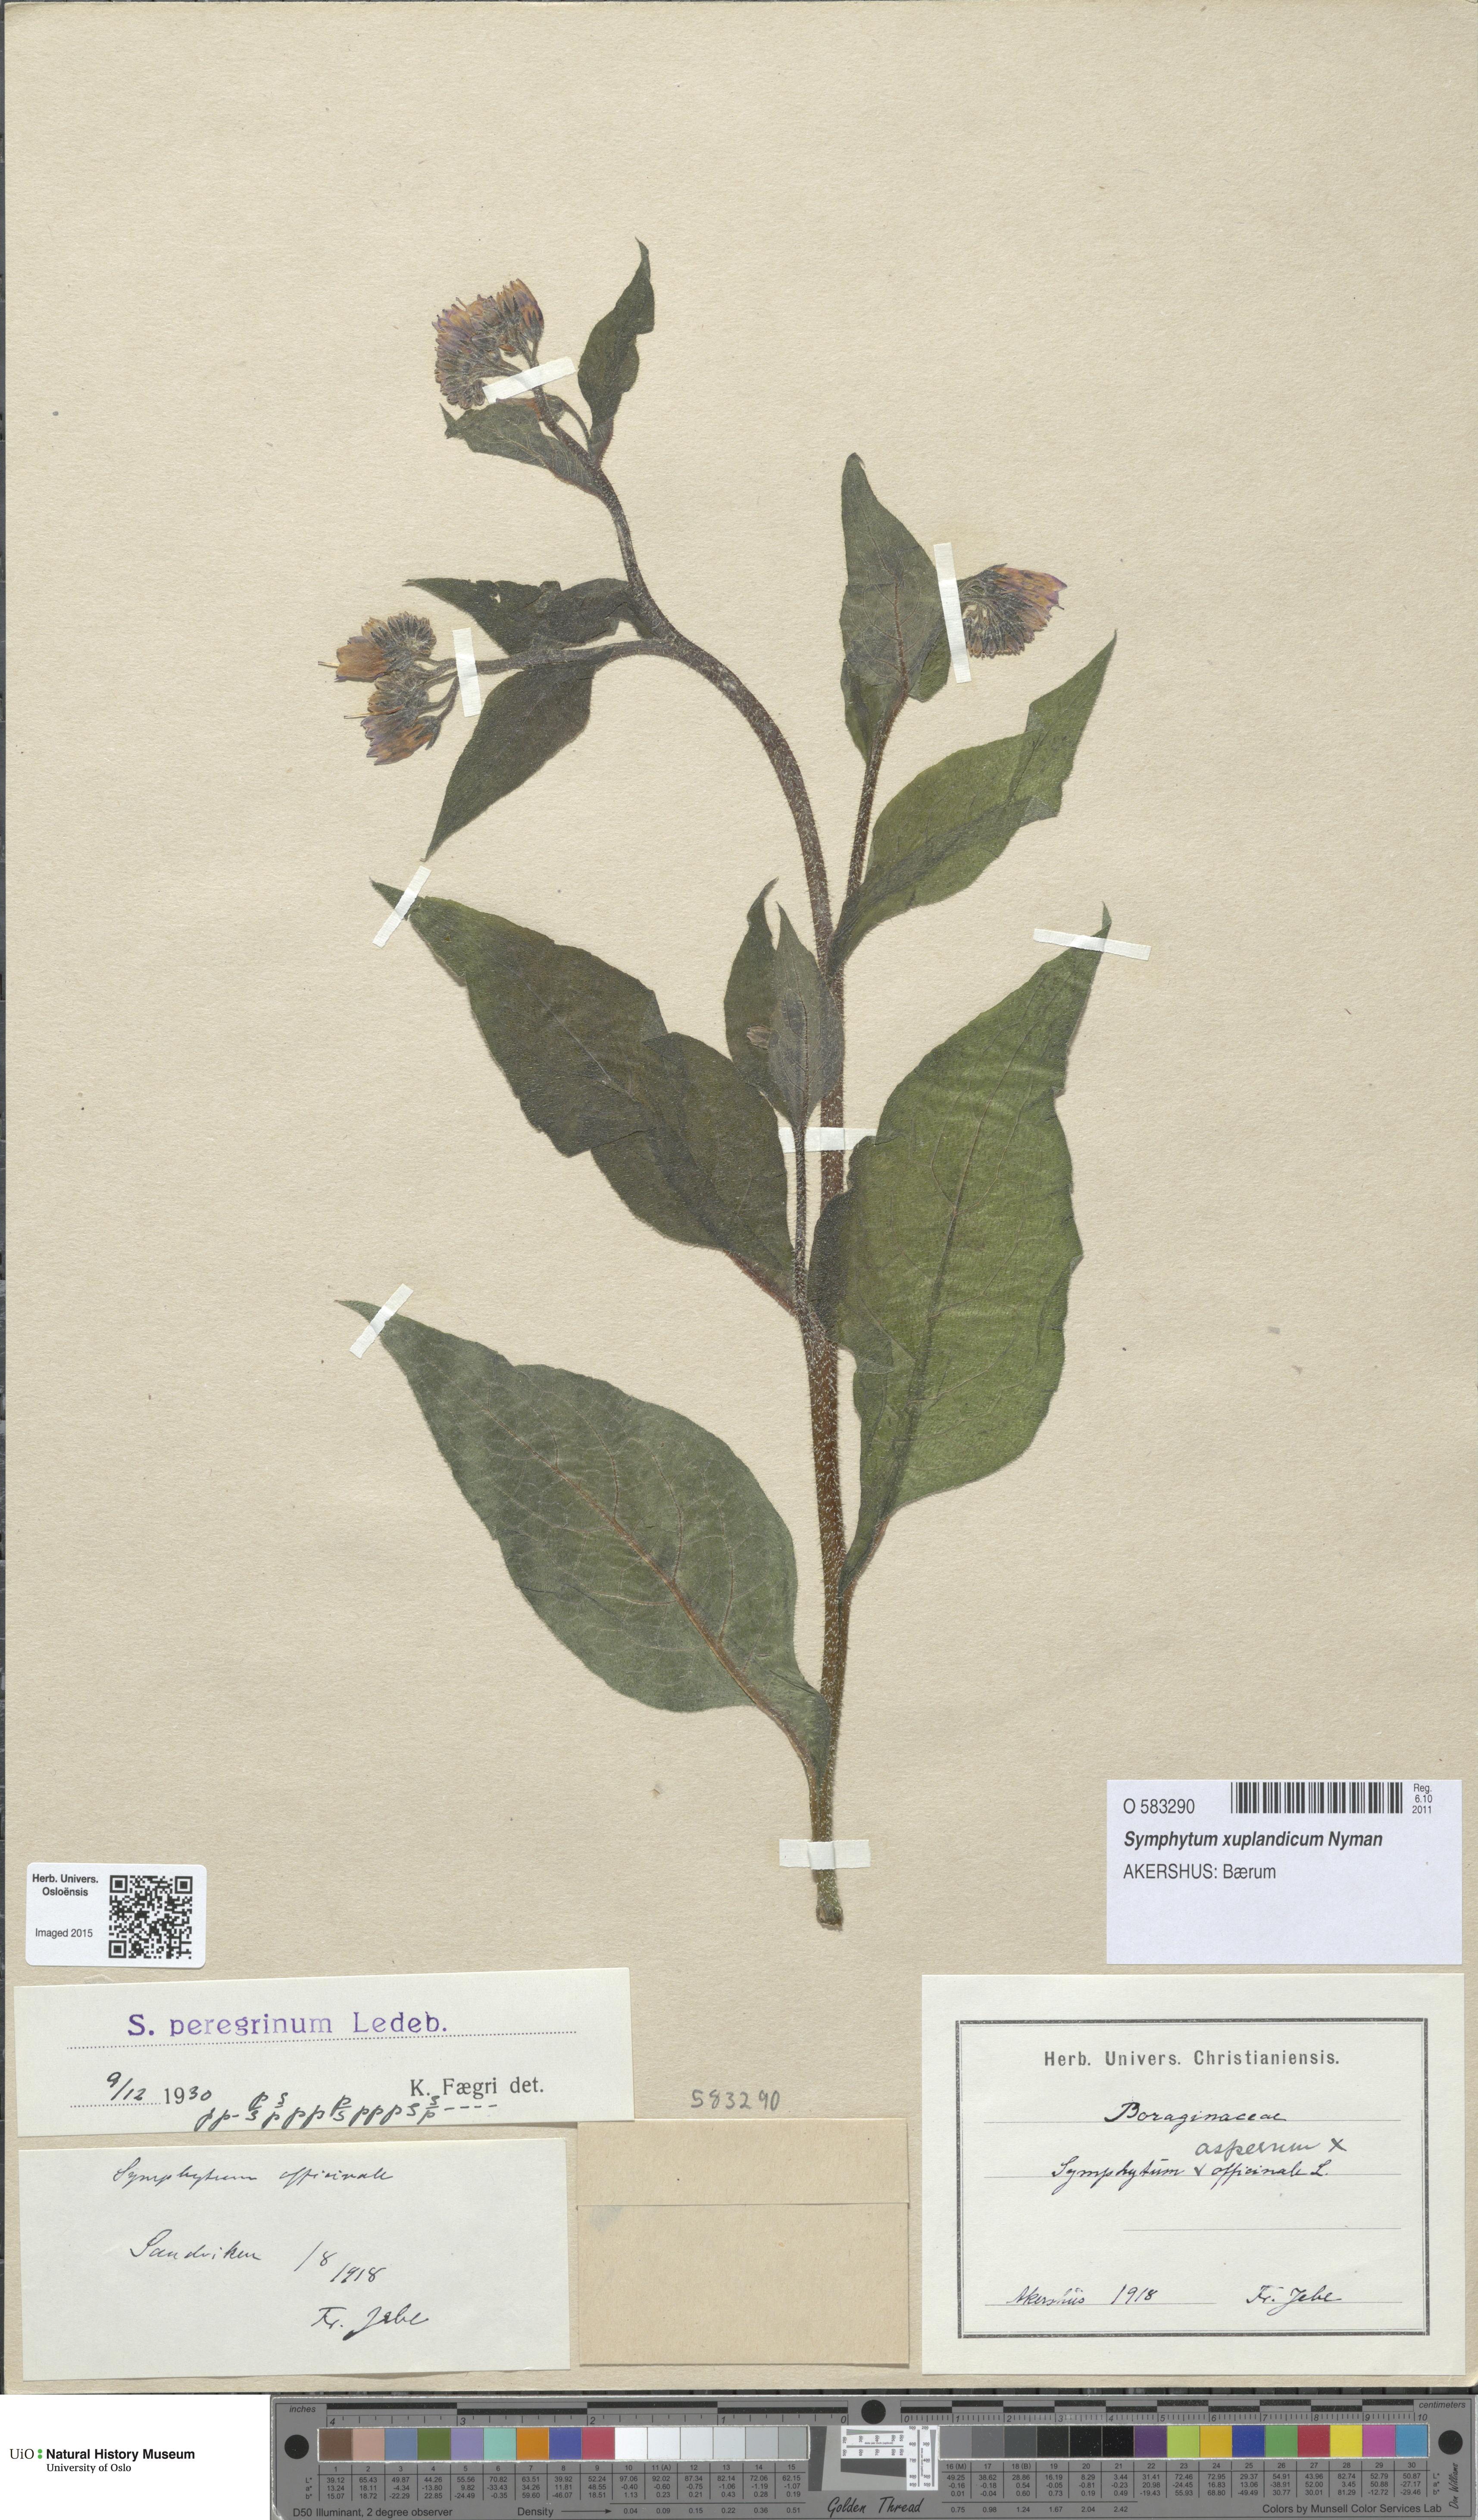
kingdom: Plantae
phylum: Tracheophyta
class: Magnoliopsida
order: Boraginales
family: Boraginaceae
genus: Symphytum
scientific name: Symphytum uplandicum
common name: Russian comfrey
